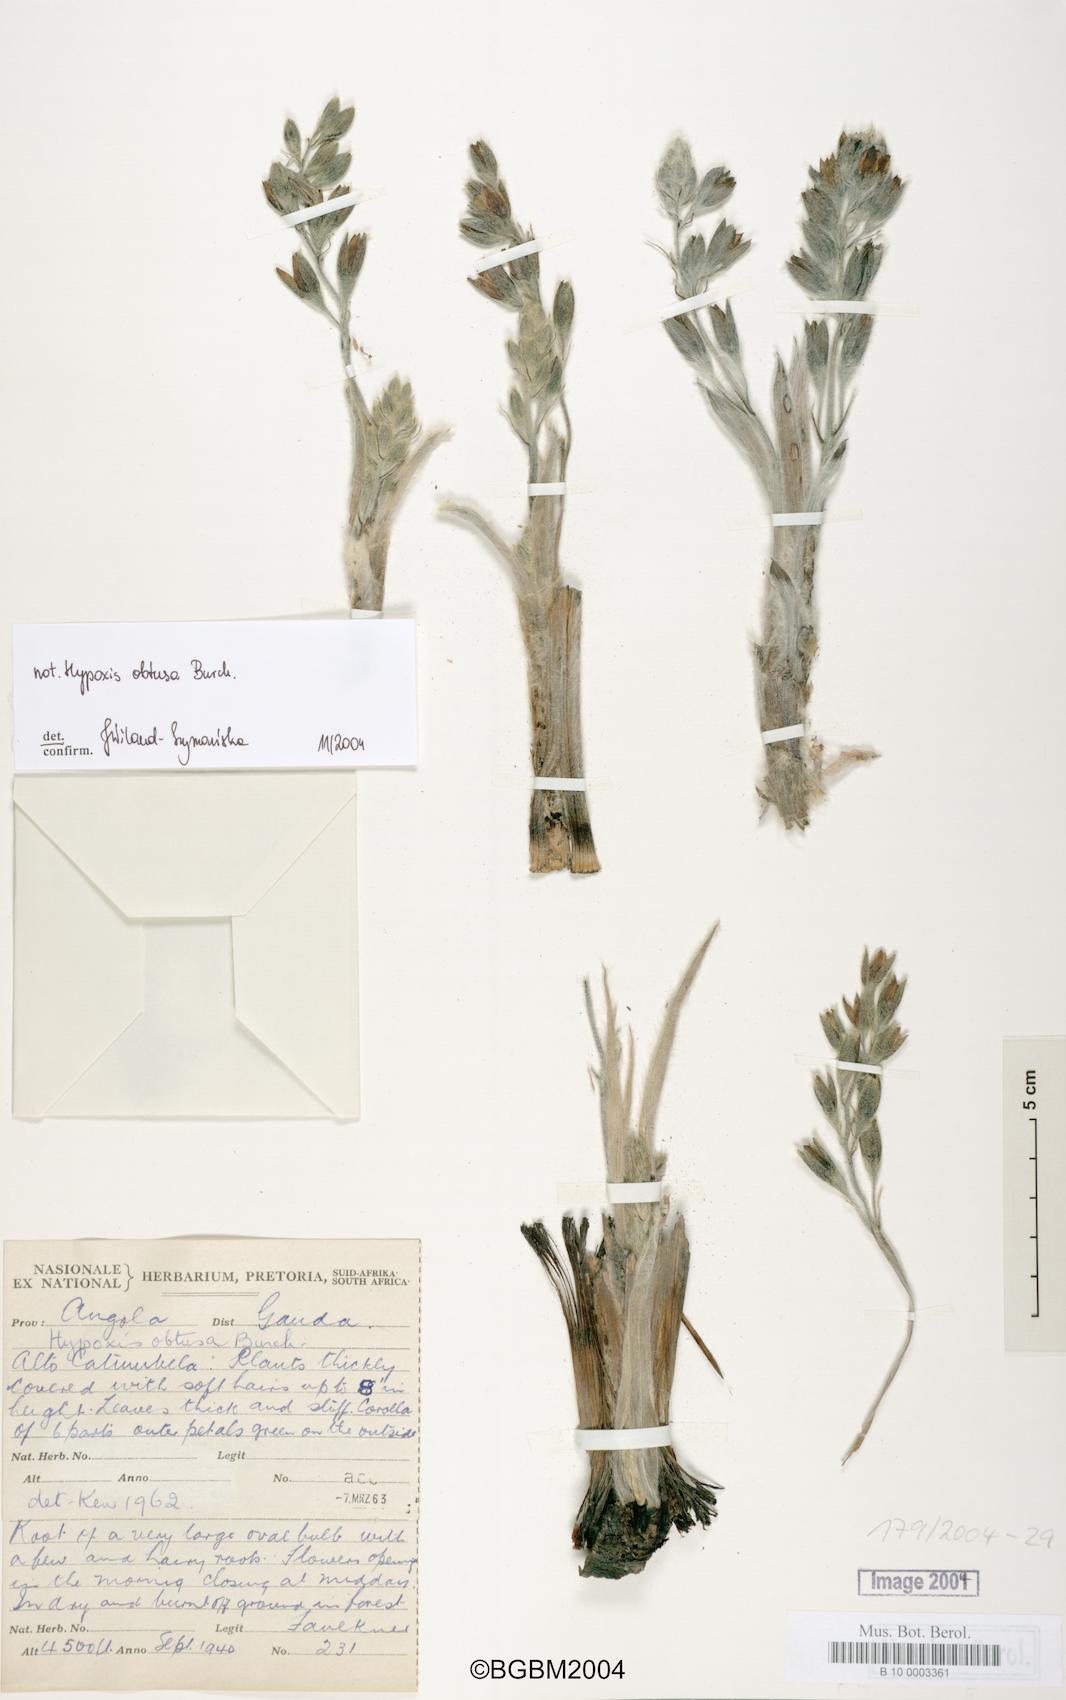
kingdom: Plantae
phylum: Tracheophyta
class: Liliopsida
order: Asparagales
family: Hypoxidaceae
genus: Hypoxis
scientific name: Hypoxis obtusa
